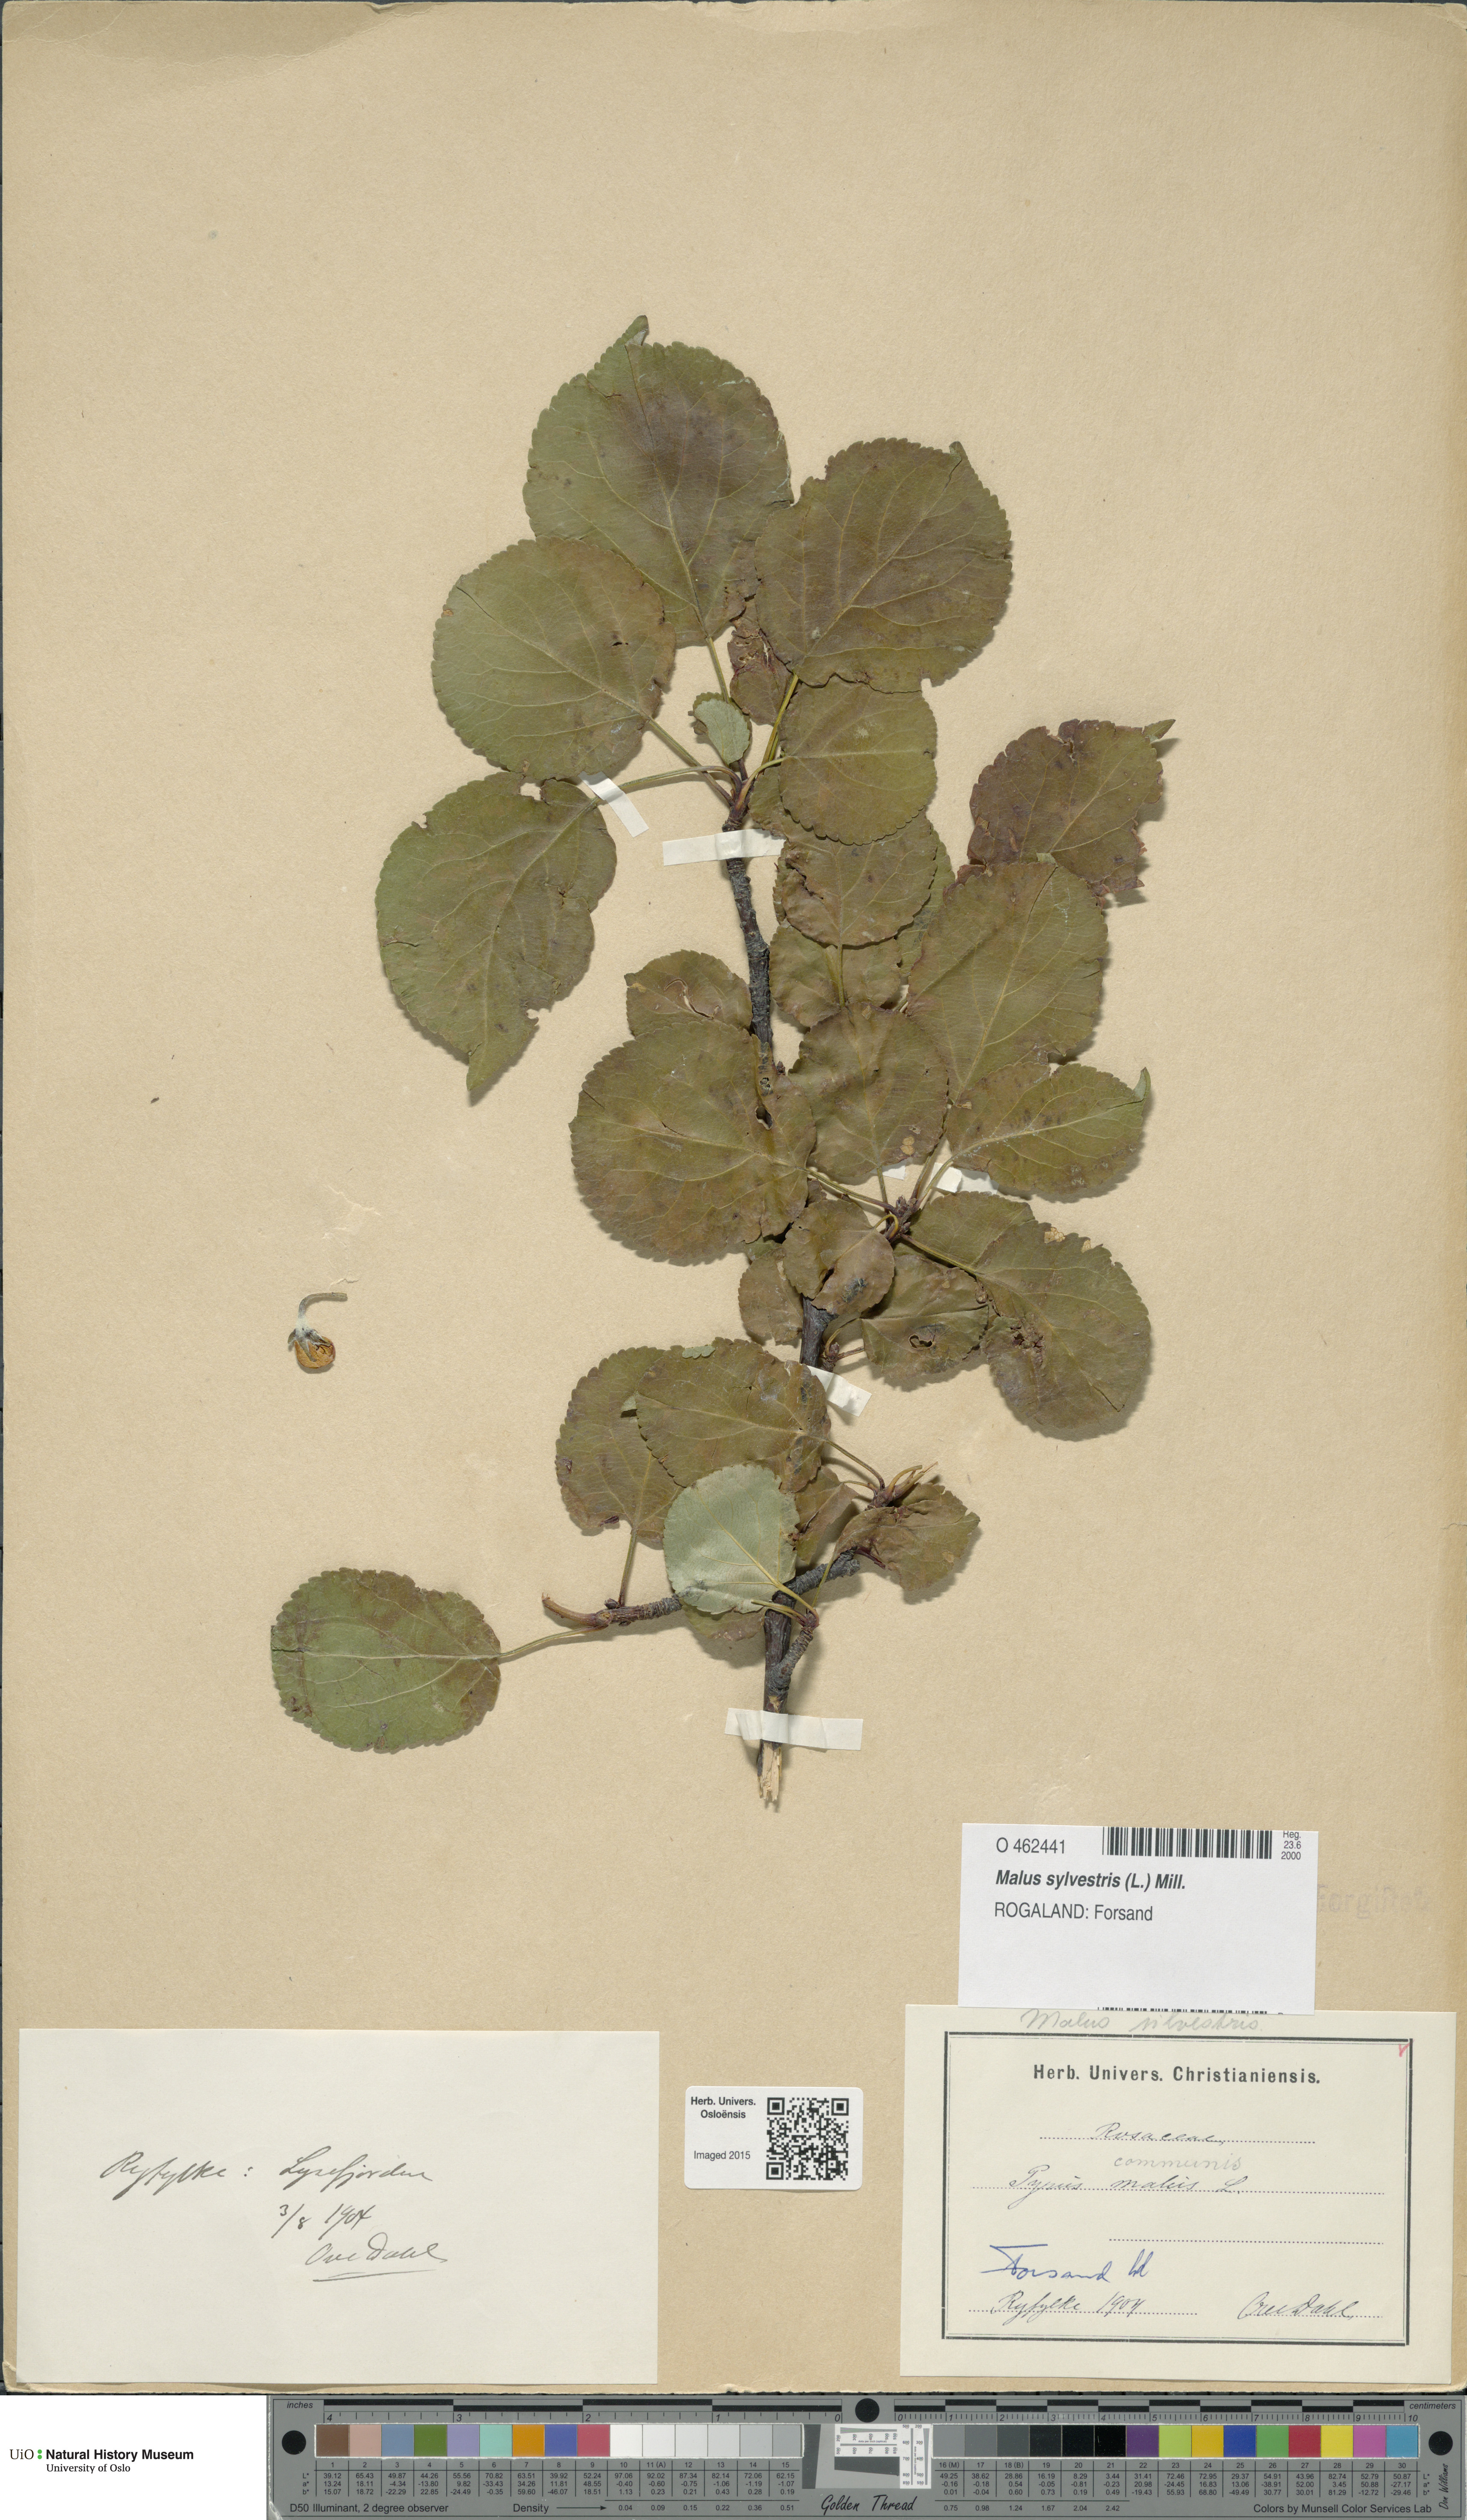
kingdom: Plantae
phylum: Tracheophyta
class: Magnoliopsida
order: Rosales
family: Rosaceae
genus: Malus
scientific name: Malus sylvestris
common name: Crab apple
